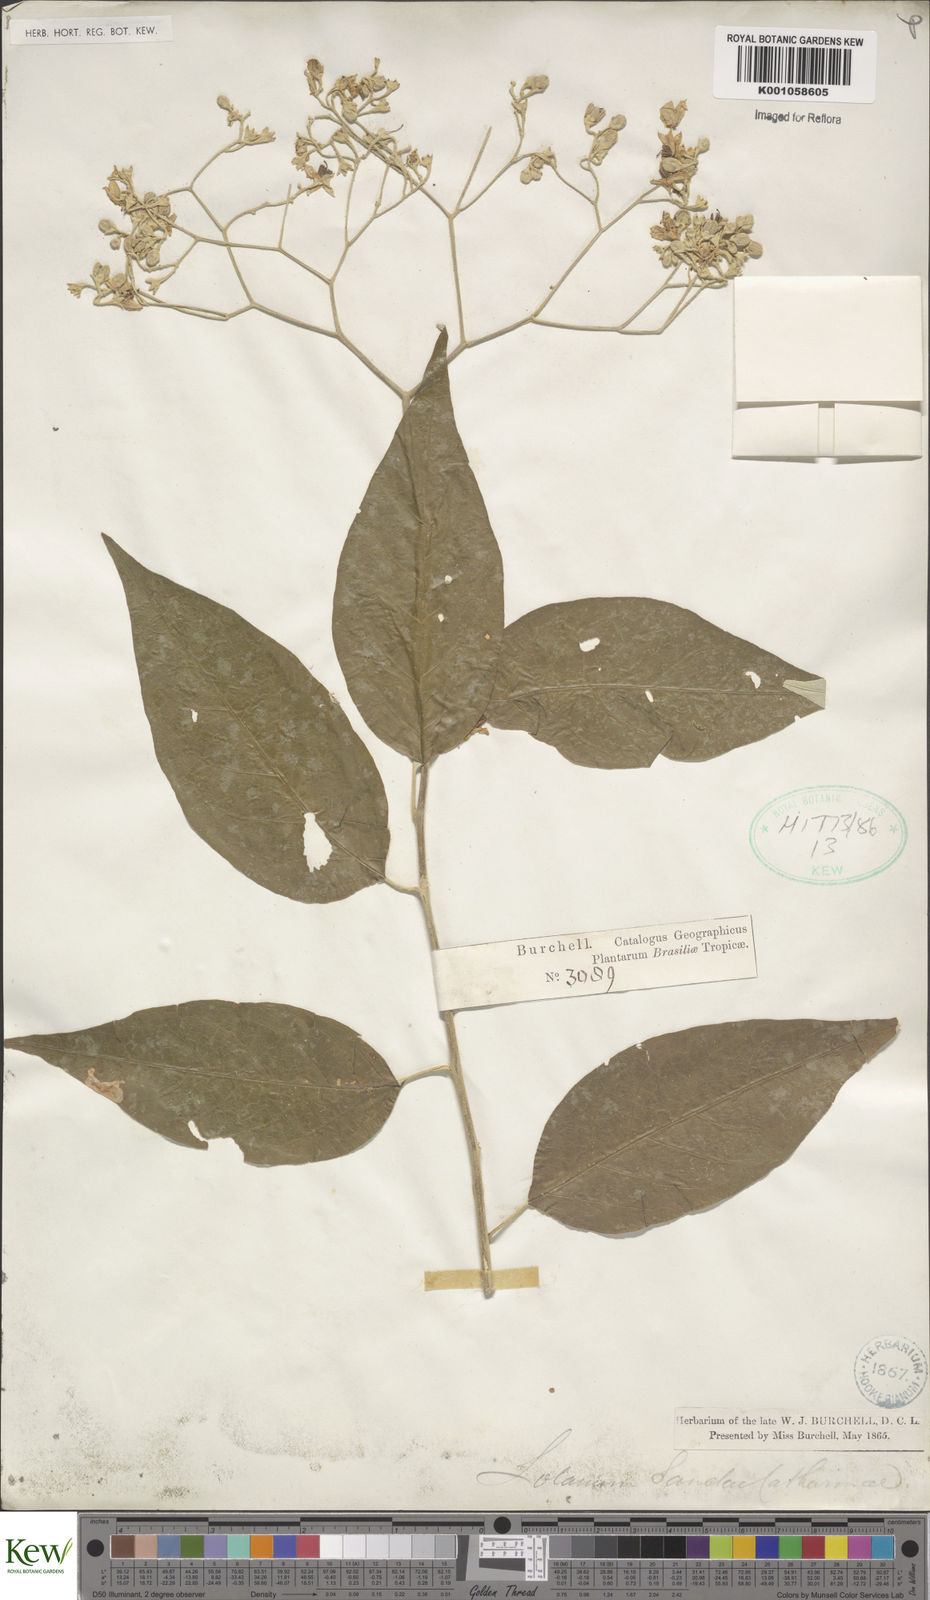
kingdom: Plantae
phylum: Tracheophyta
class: Magnoliopsida
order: Solanales
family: Solanaceae
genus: Solanum
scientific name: Solanum sanctae-catharinae
